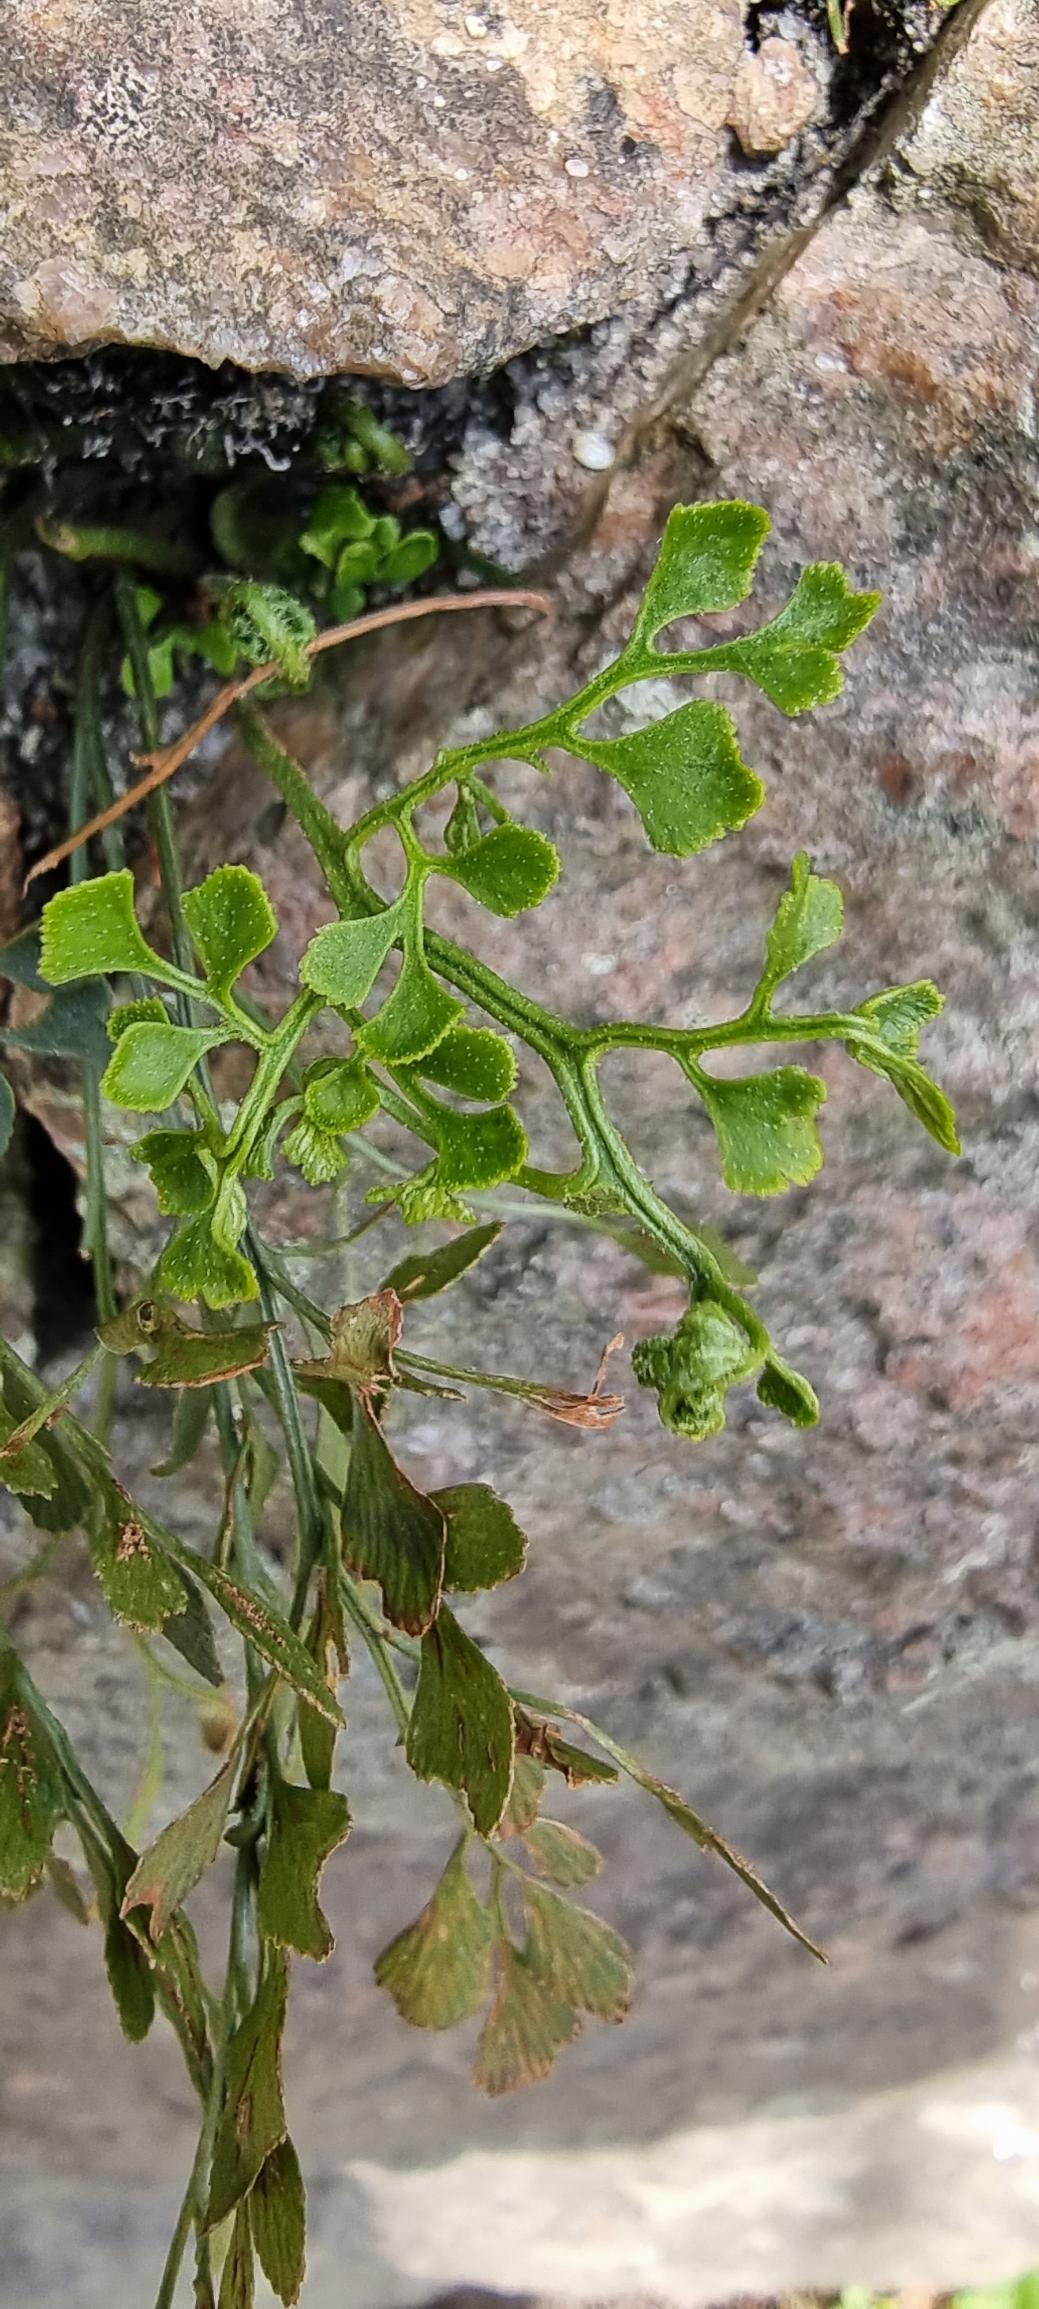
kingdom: Plantae
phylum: Tracheophyta
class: Polypodiopsida
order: Polypodiales
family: Aspleniaceae
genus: Asplenium
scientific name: Asplenium ruta-muraria
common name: Murrude
